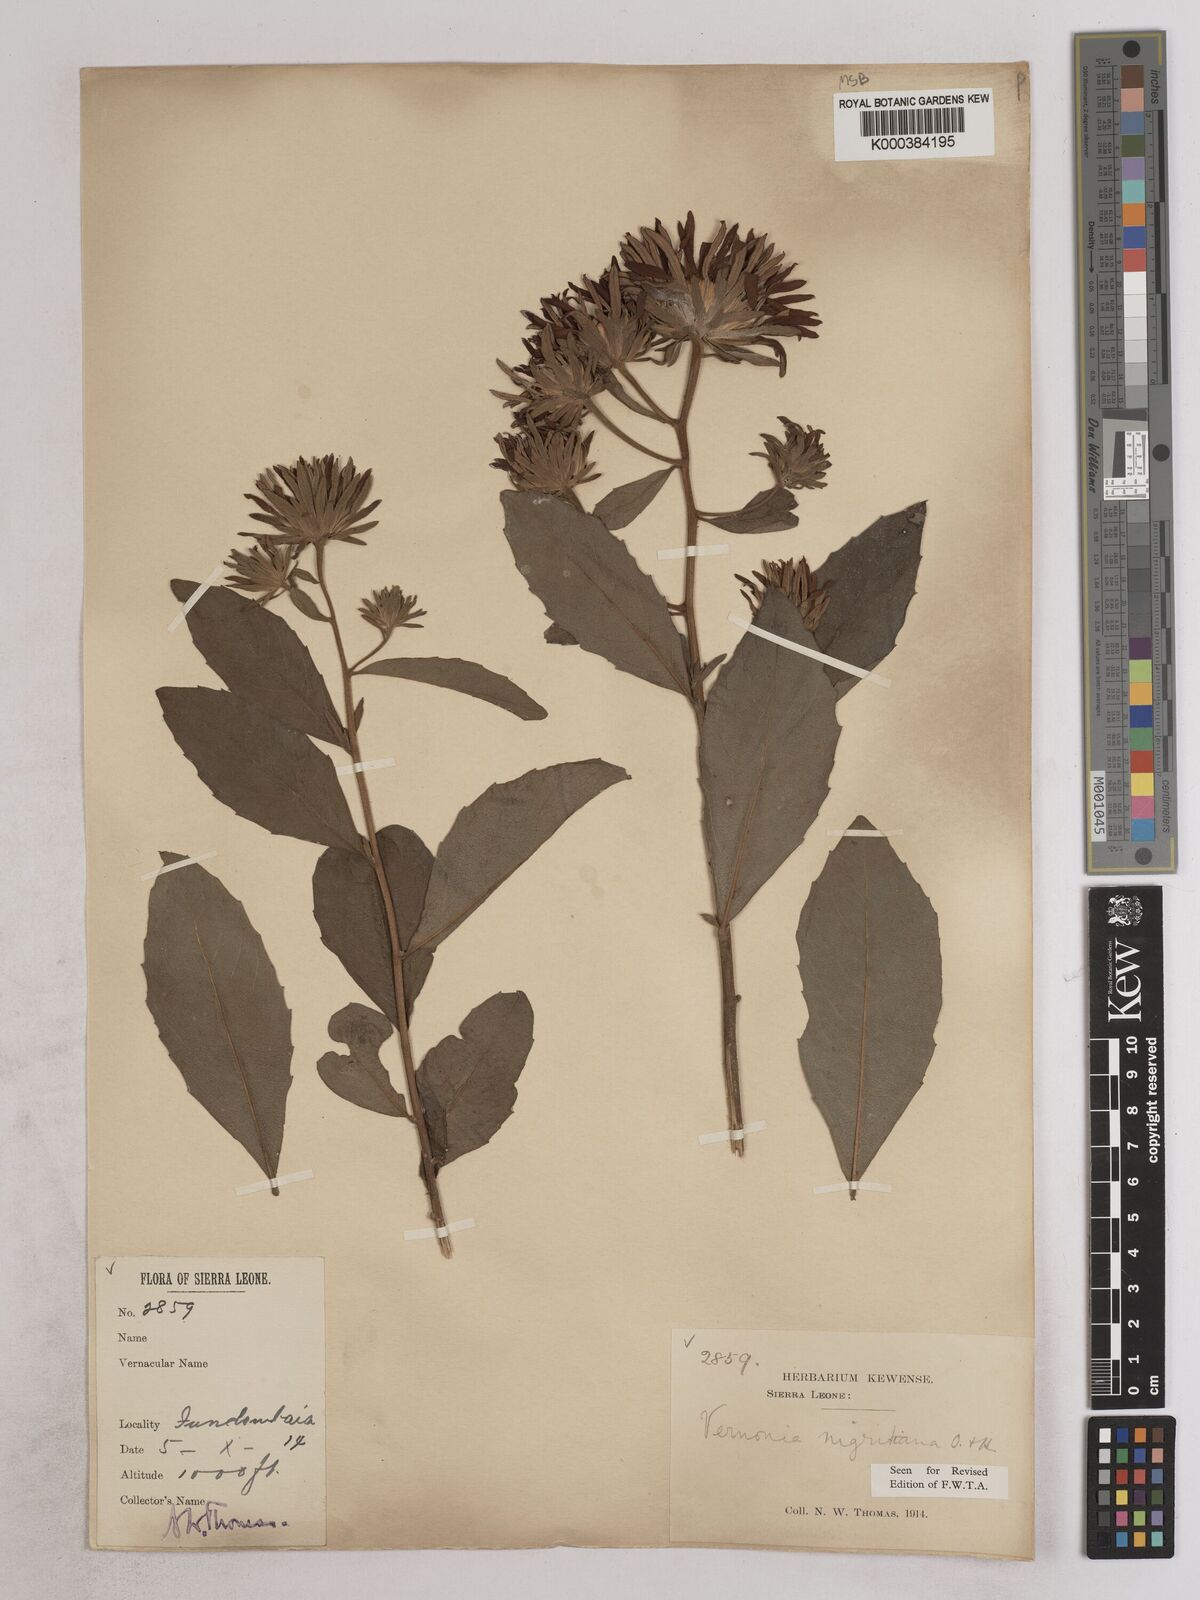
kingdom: Plantae
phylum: Tracheophyta
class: Magnoliopsida
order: Asterales
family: Asteraceae
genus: Linzia
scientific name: Linzia nigritiana
